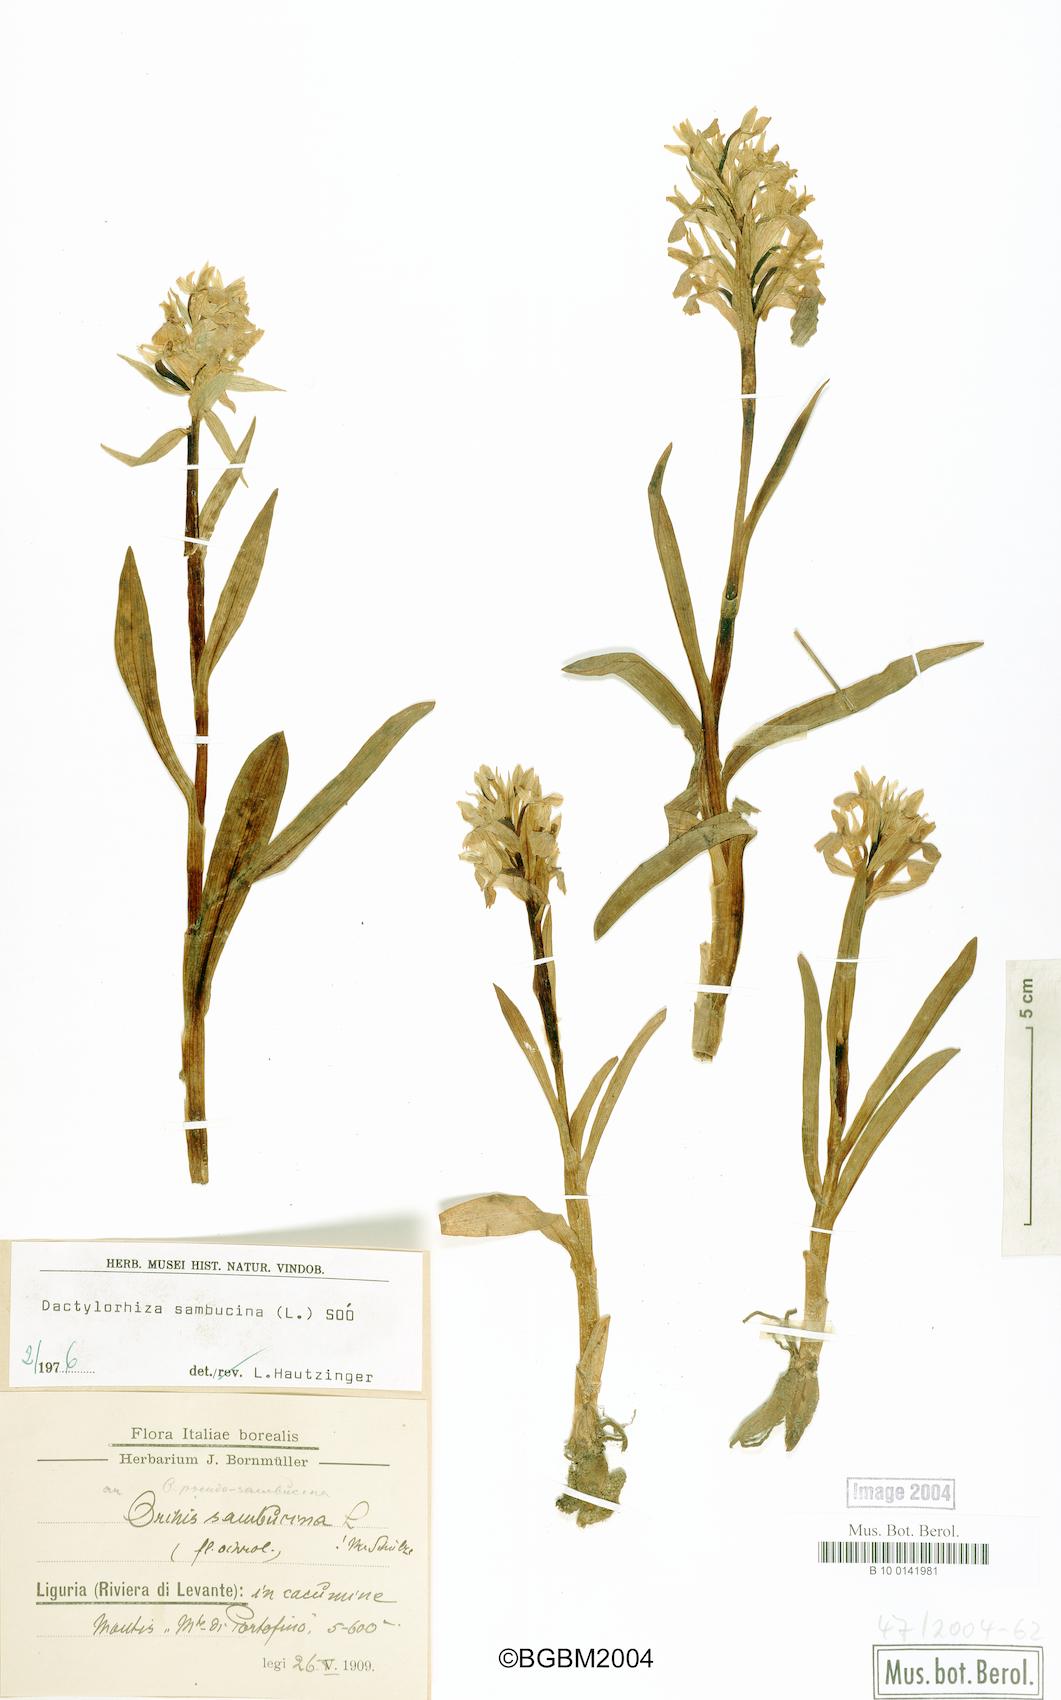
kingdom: Plantae
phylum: Tracheophyta
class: Liliopsida
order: Asparagales
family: Orchidaceae
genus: Dactylorhiza
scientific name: Dactylorhiza sambucina
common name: Elder-flowered orchid
